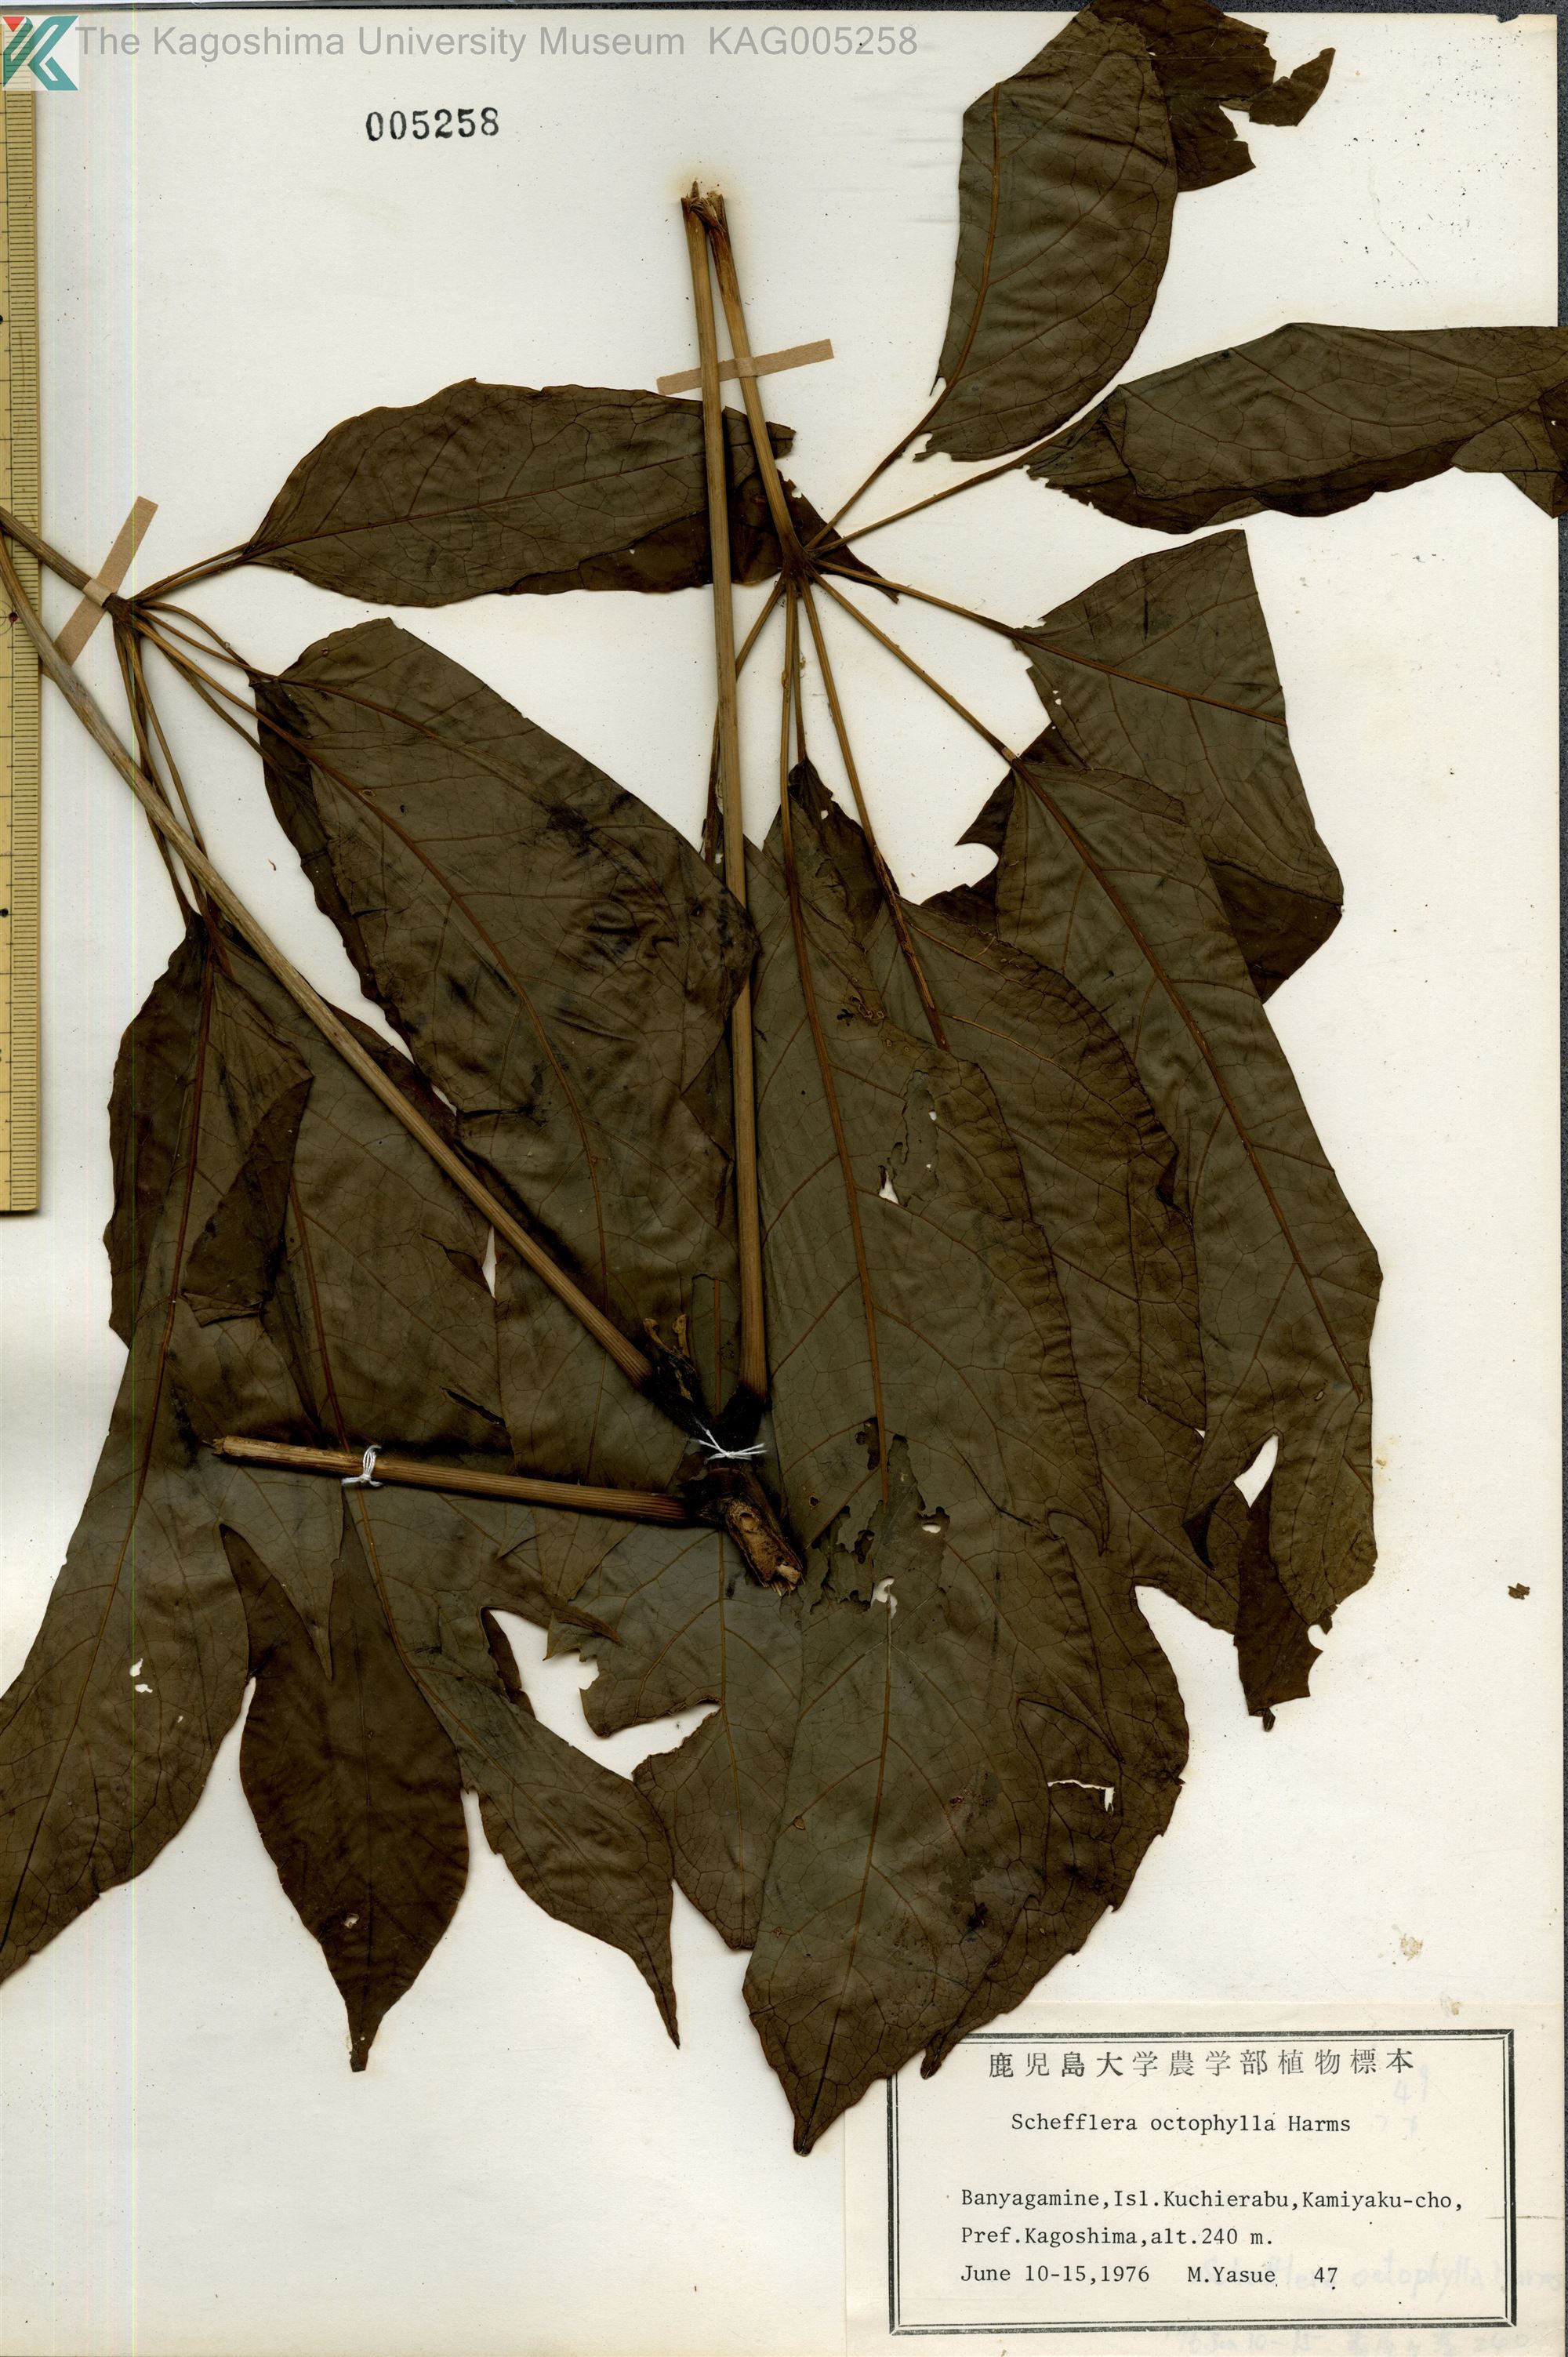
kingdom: Plantae
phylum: Tracheophyta
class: Magnoliopsida
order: Apiales
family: Araliaceae
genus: Heptapleurum
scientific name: Heptapleurum heptaphyllum
